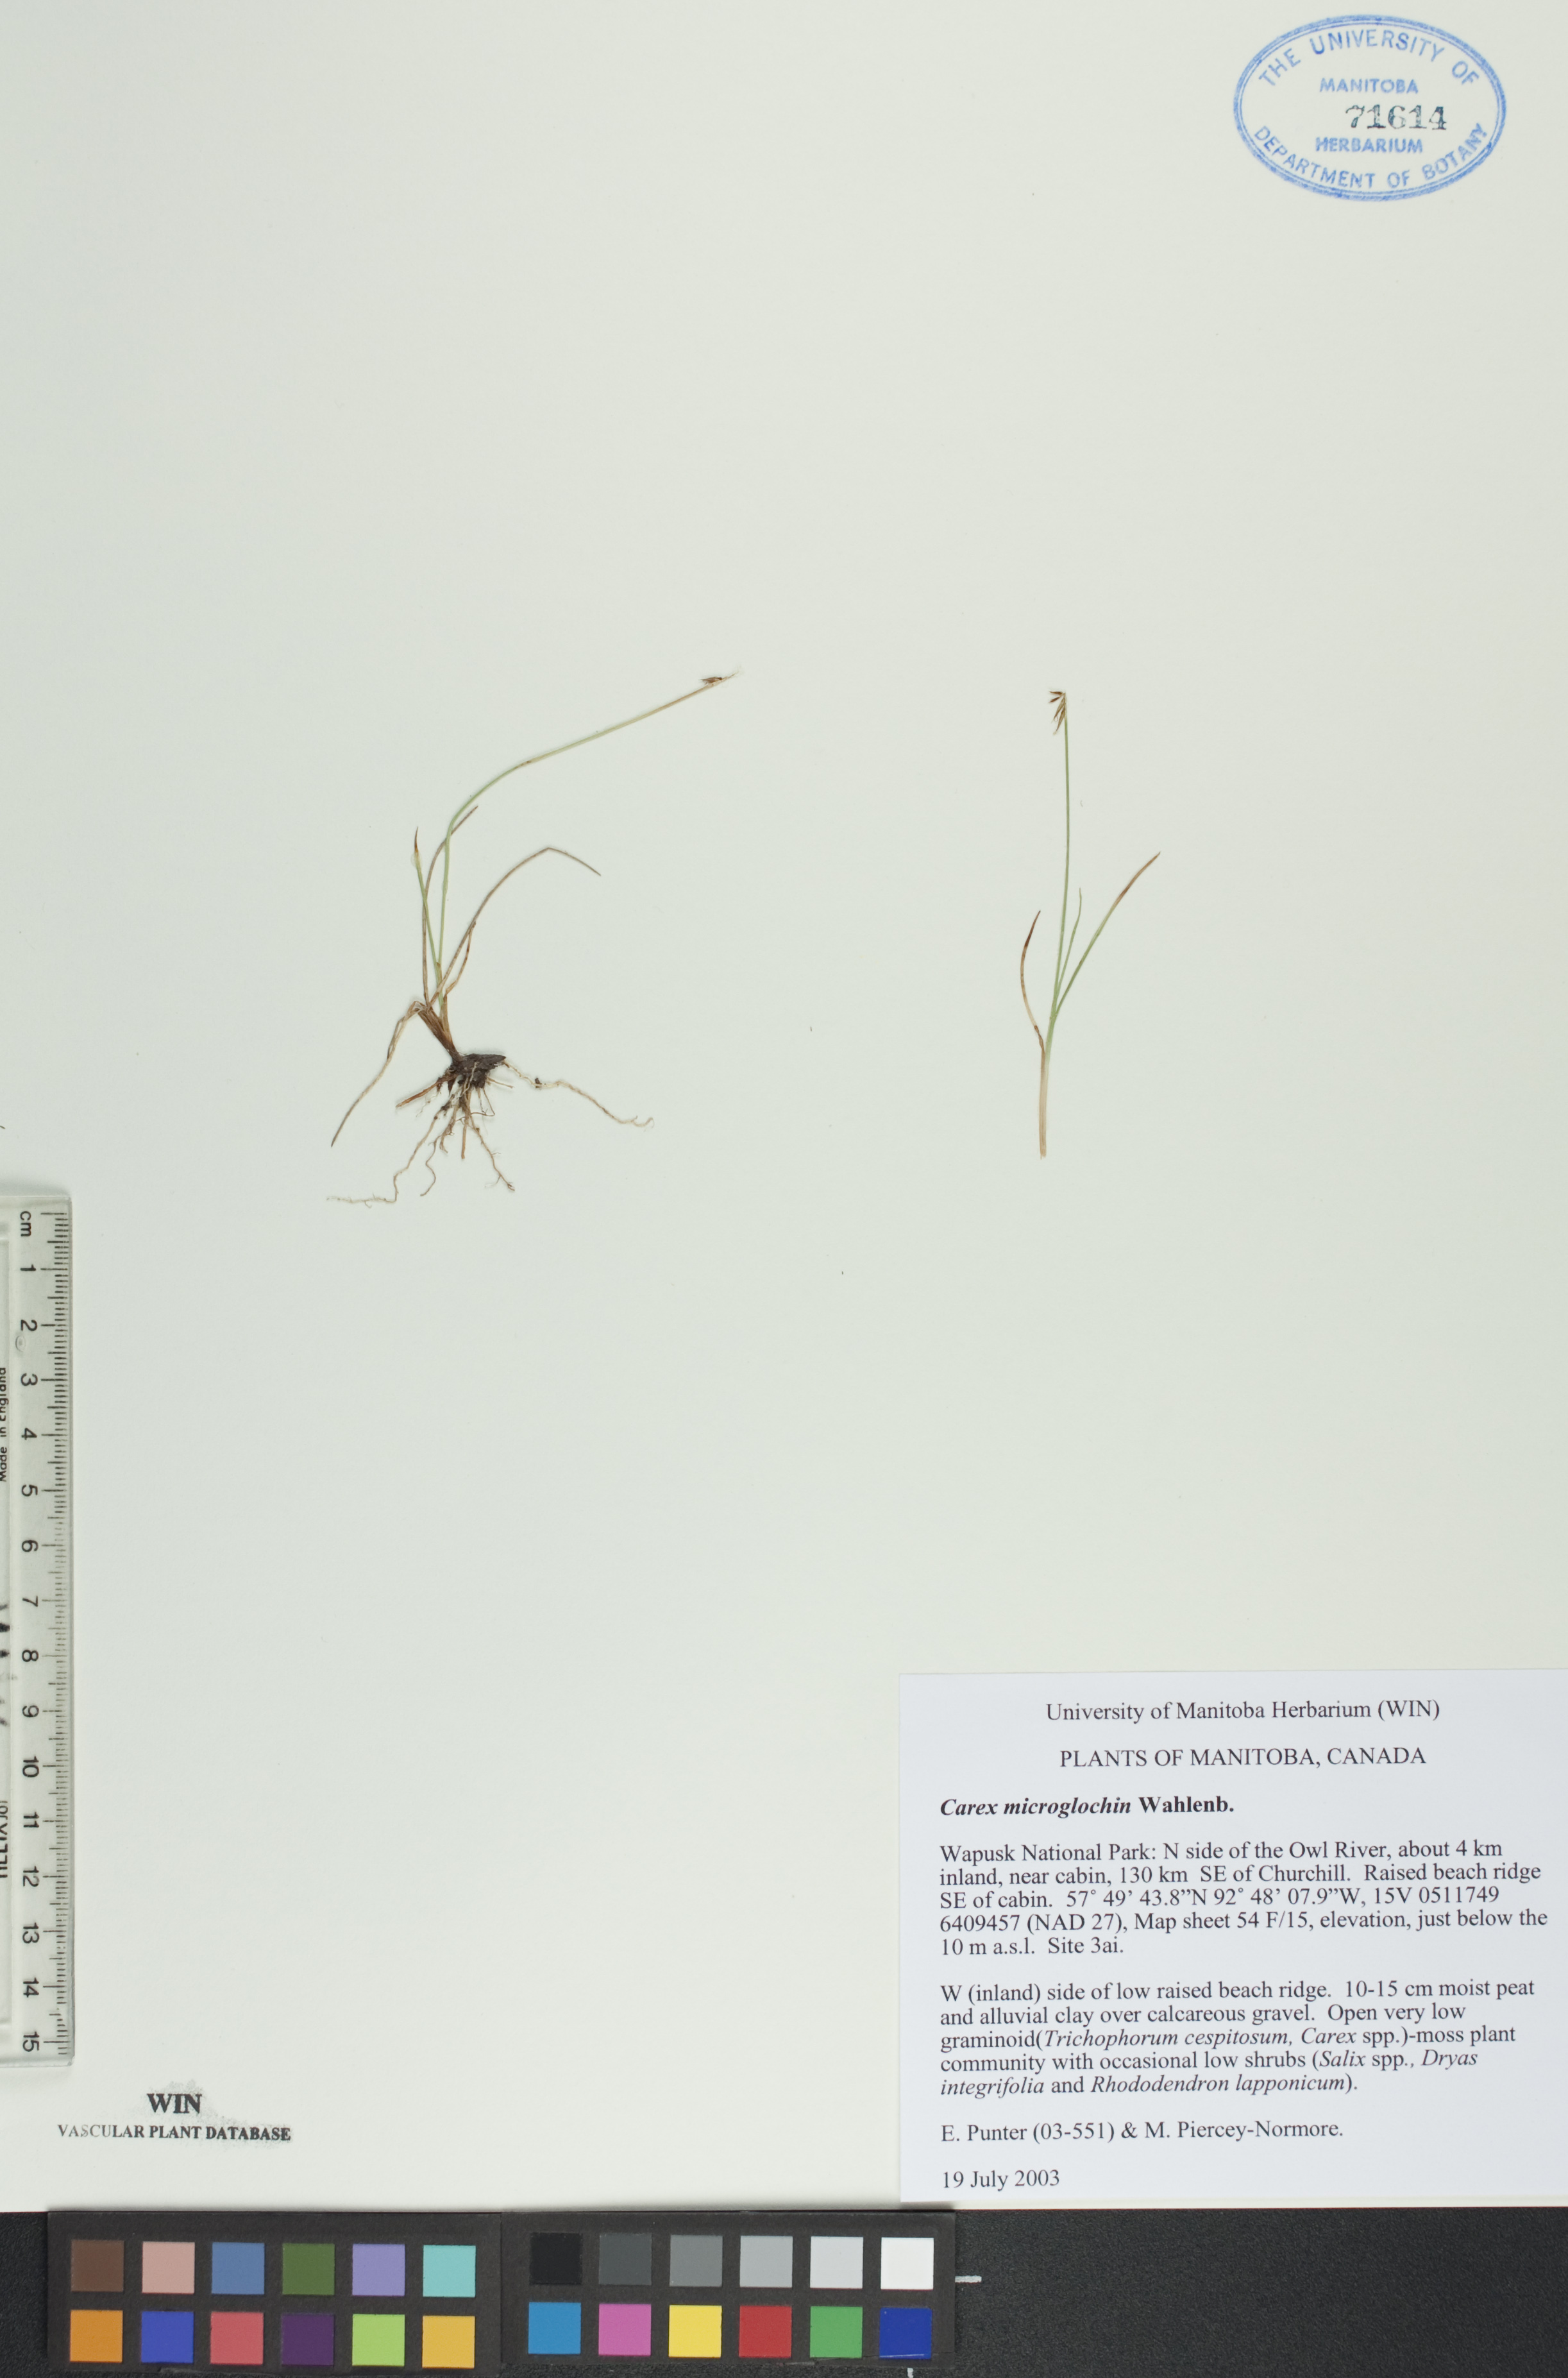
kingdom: Plantae
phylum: Tracheophyta
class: Liliopsida
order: Poales
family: Cyperaceae
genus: Carex
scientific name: Carex microglochin
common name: Bristle sedge
